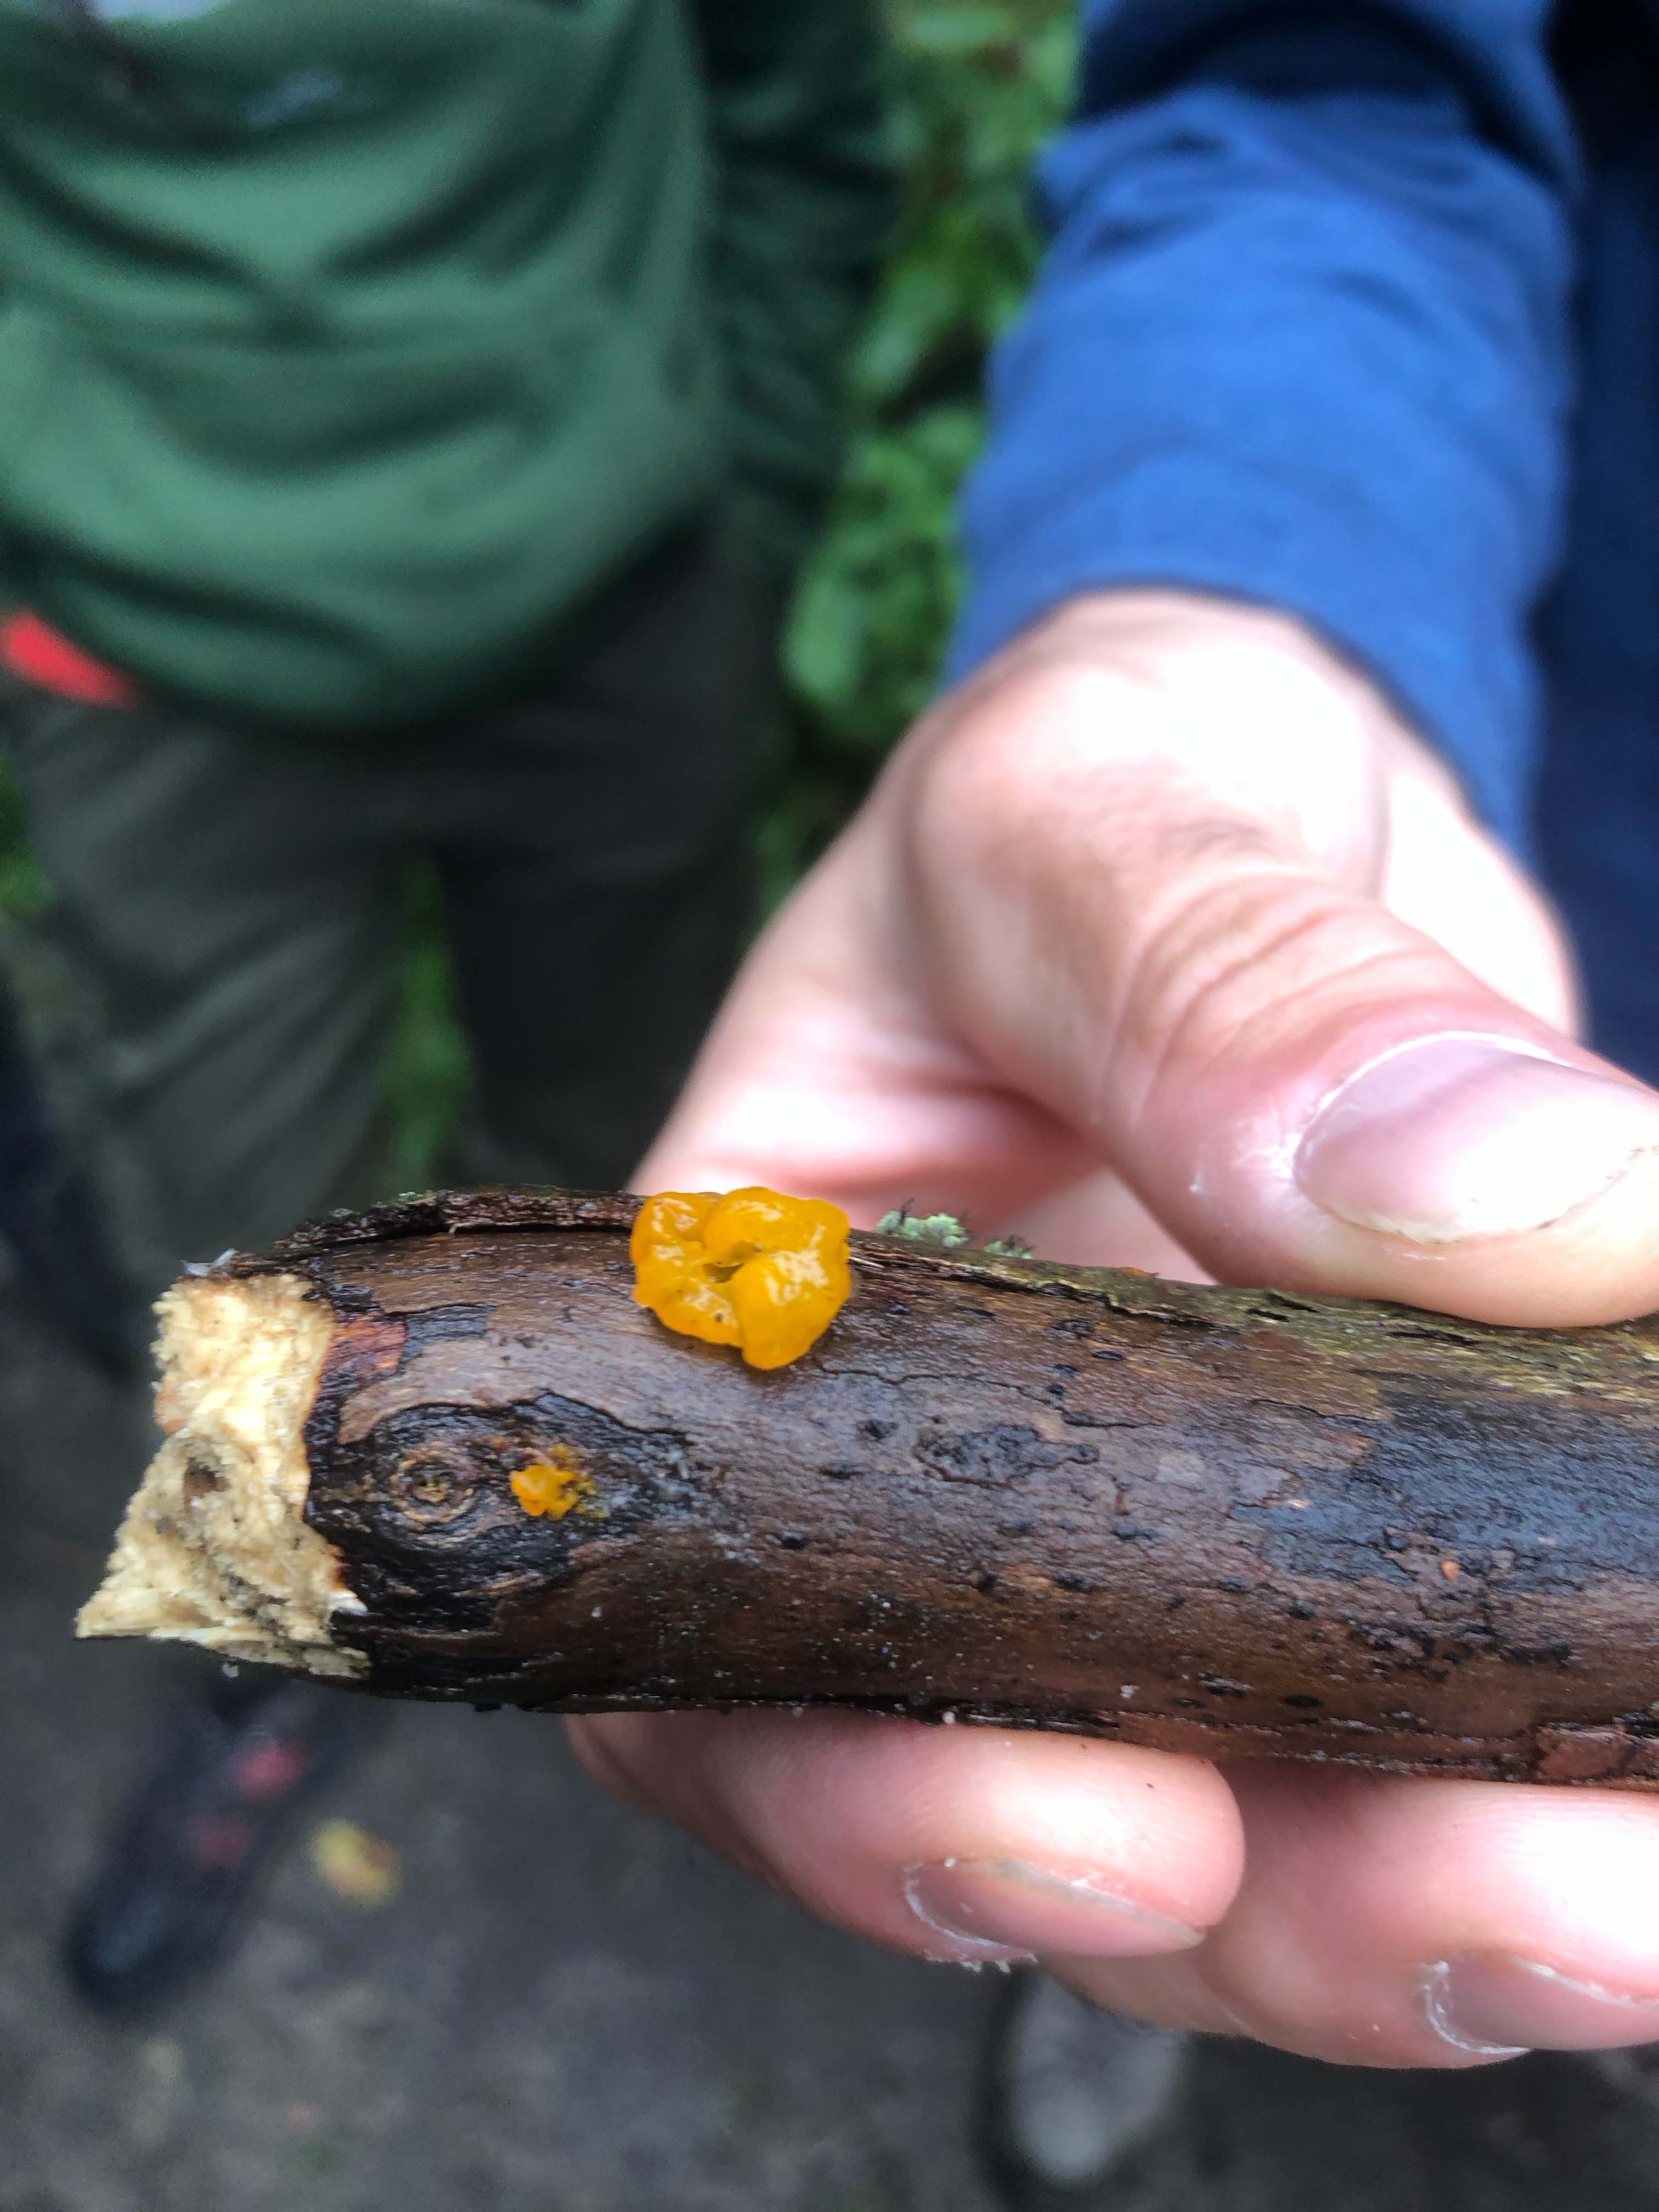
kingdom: Fungi
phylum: Basidiomycota
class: Tremellomycetes
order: Tremellales
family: Tremellaceae
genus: Tremella
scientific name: Tremella mesenterica
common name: gul bævresvamp
